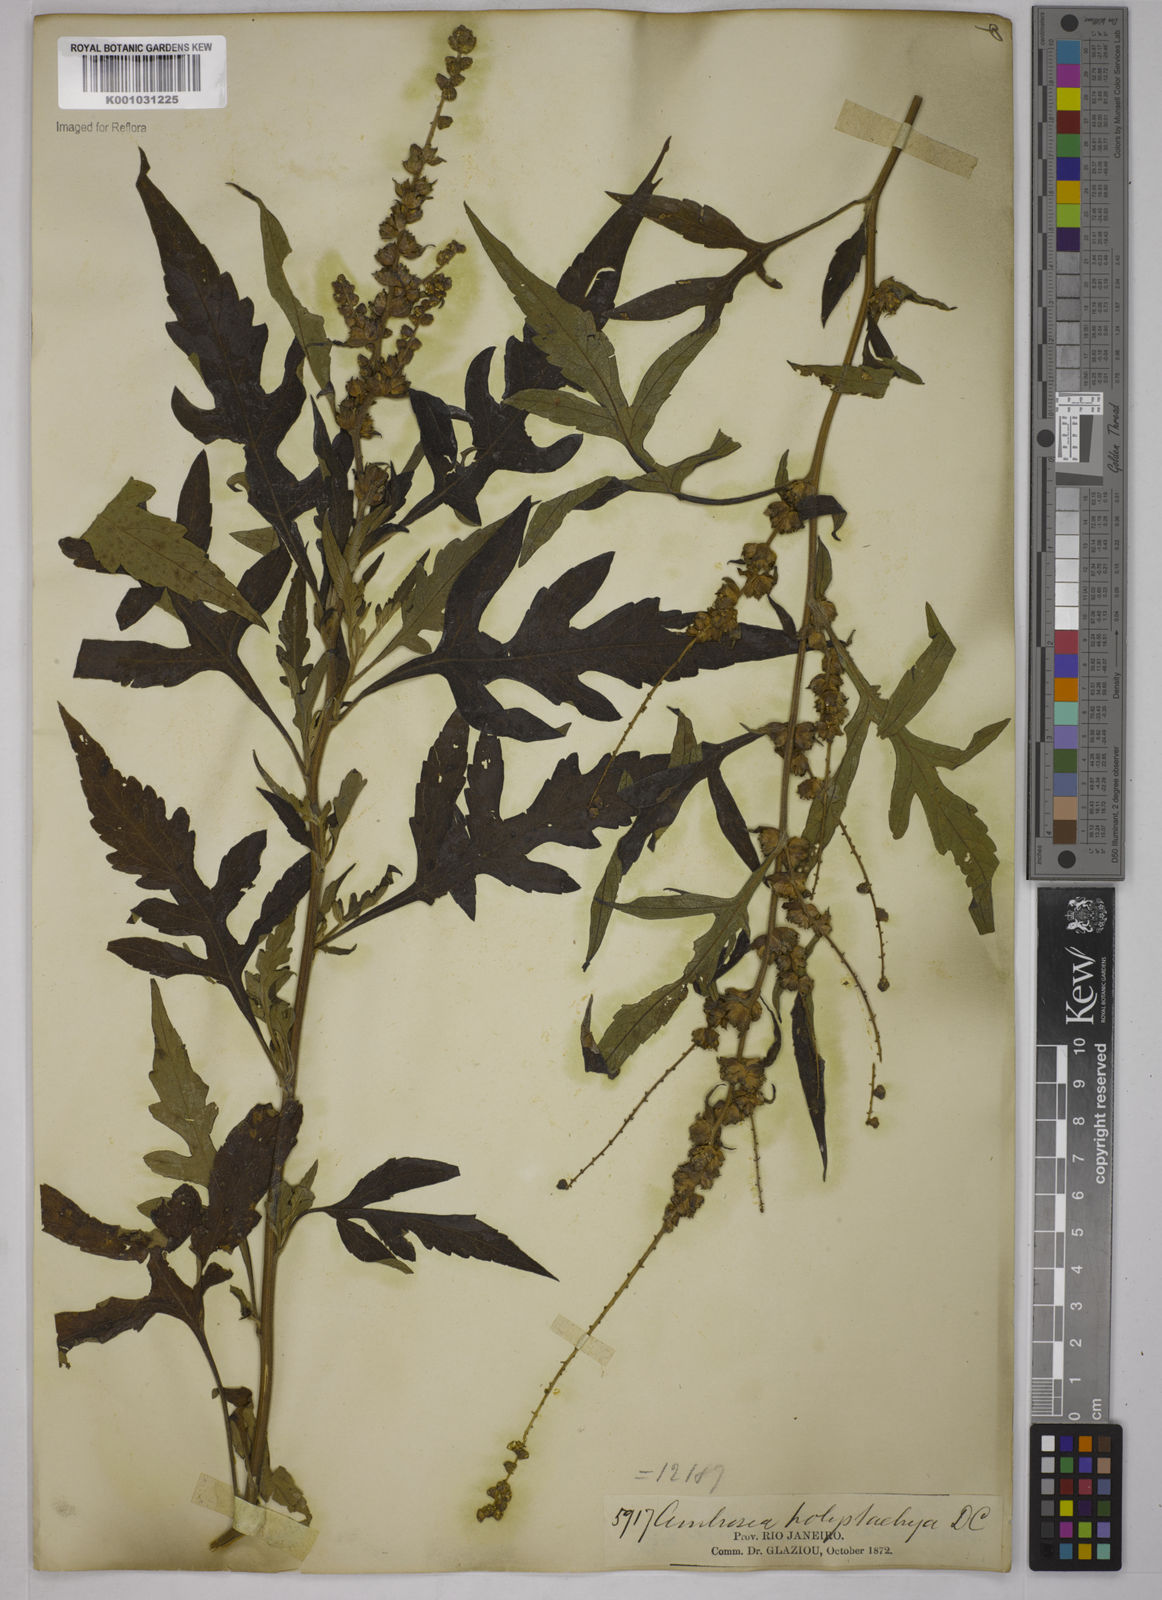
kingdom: Plantae
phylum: Tracheophyta
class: Magnoliopsida
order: Asterales
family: Asteraceae
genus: Ambrosia
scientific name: Ambrosia polystachya
